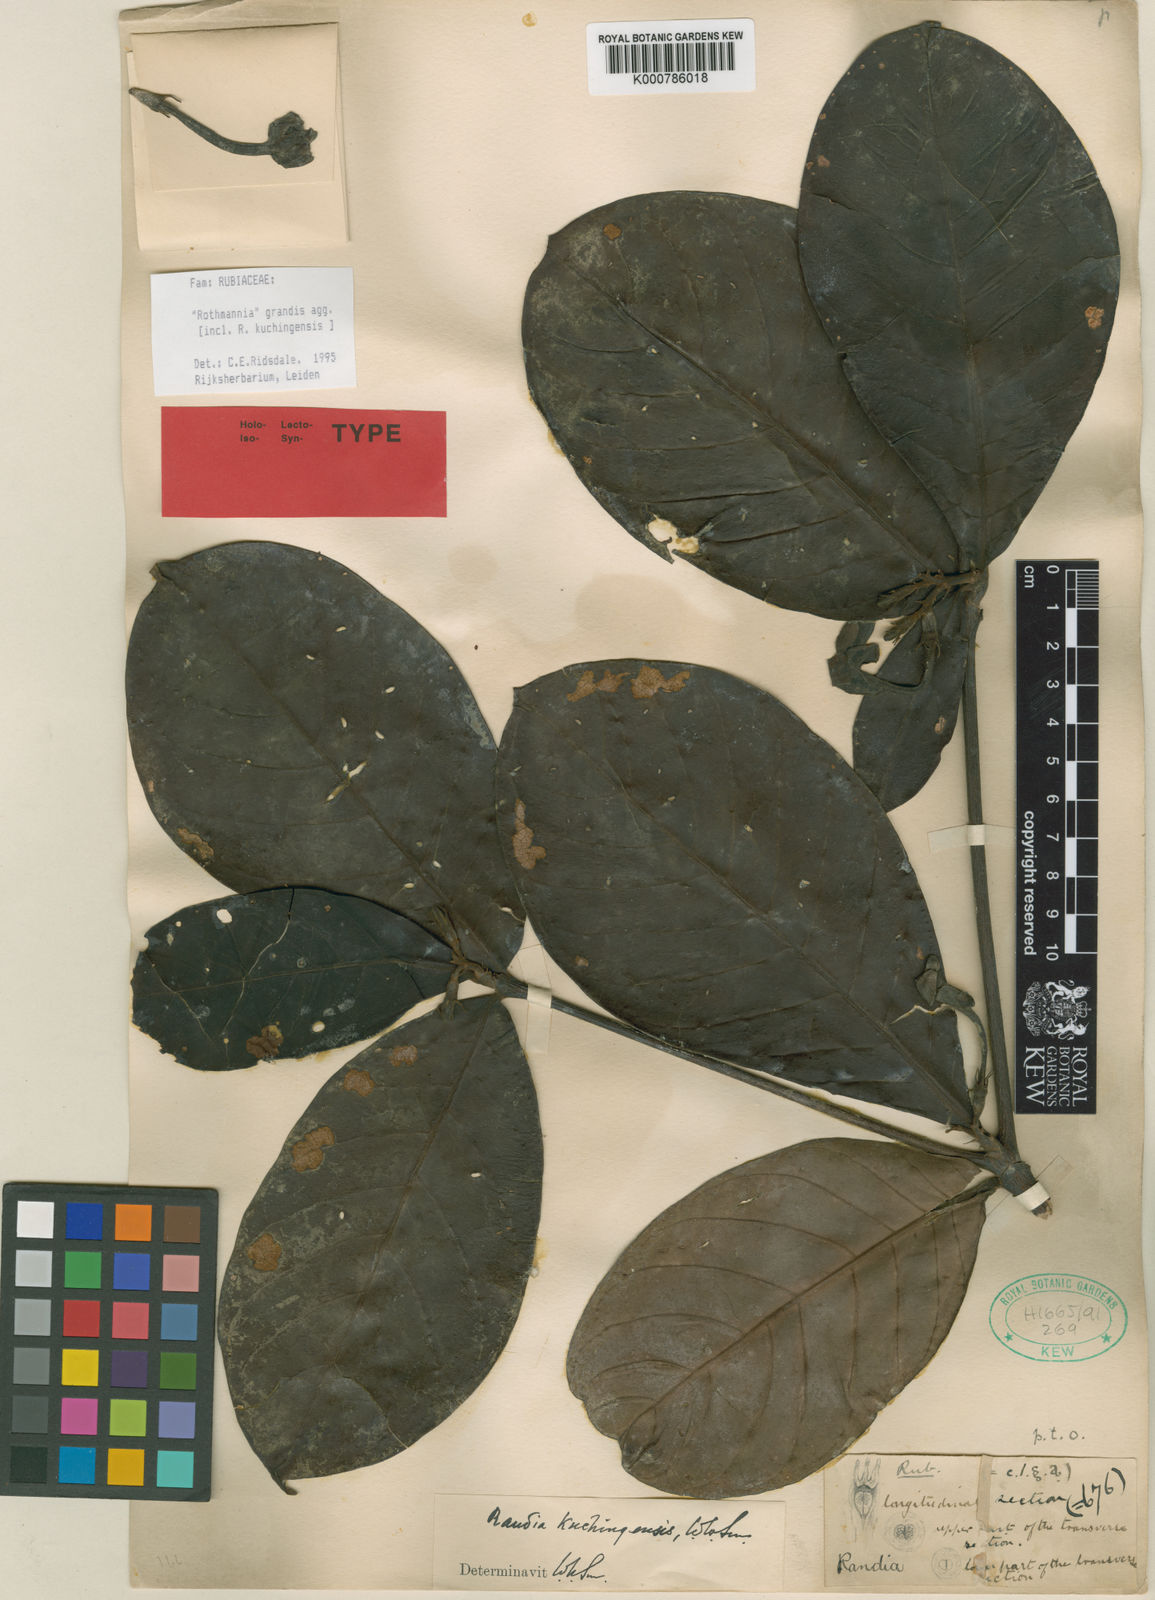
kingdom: Plantae
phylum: Tracheophyta
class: Magnoliopsida
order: Gentianales
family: Rubiaceae
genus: Ridsdalea
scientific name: Ridsdalea grandis
